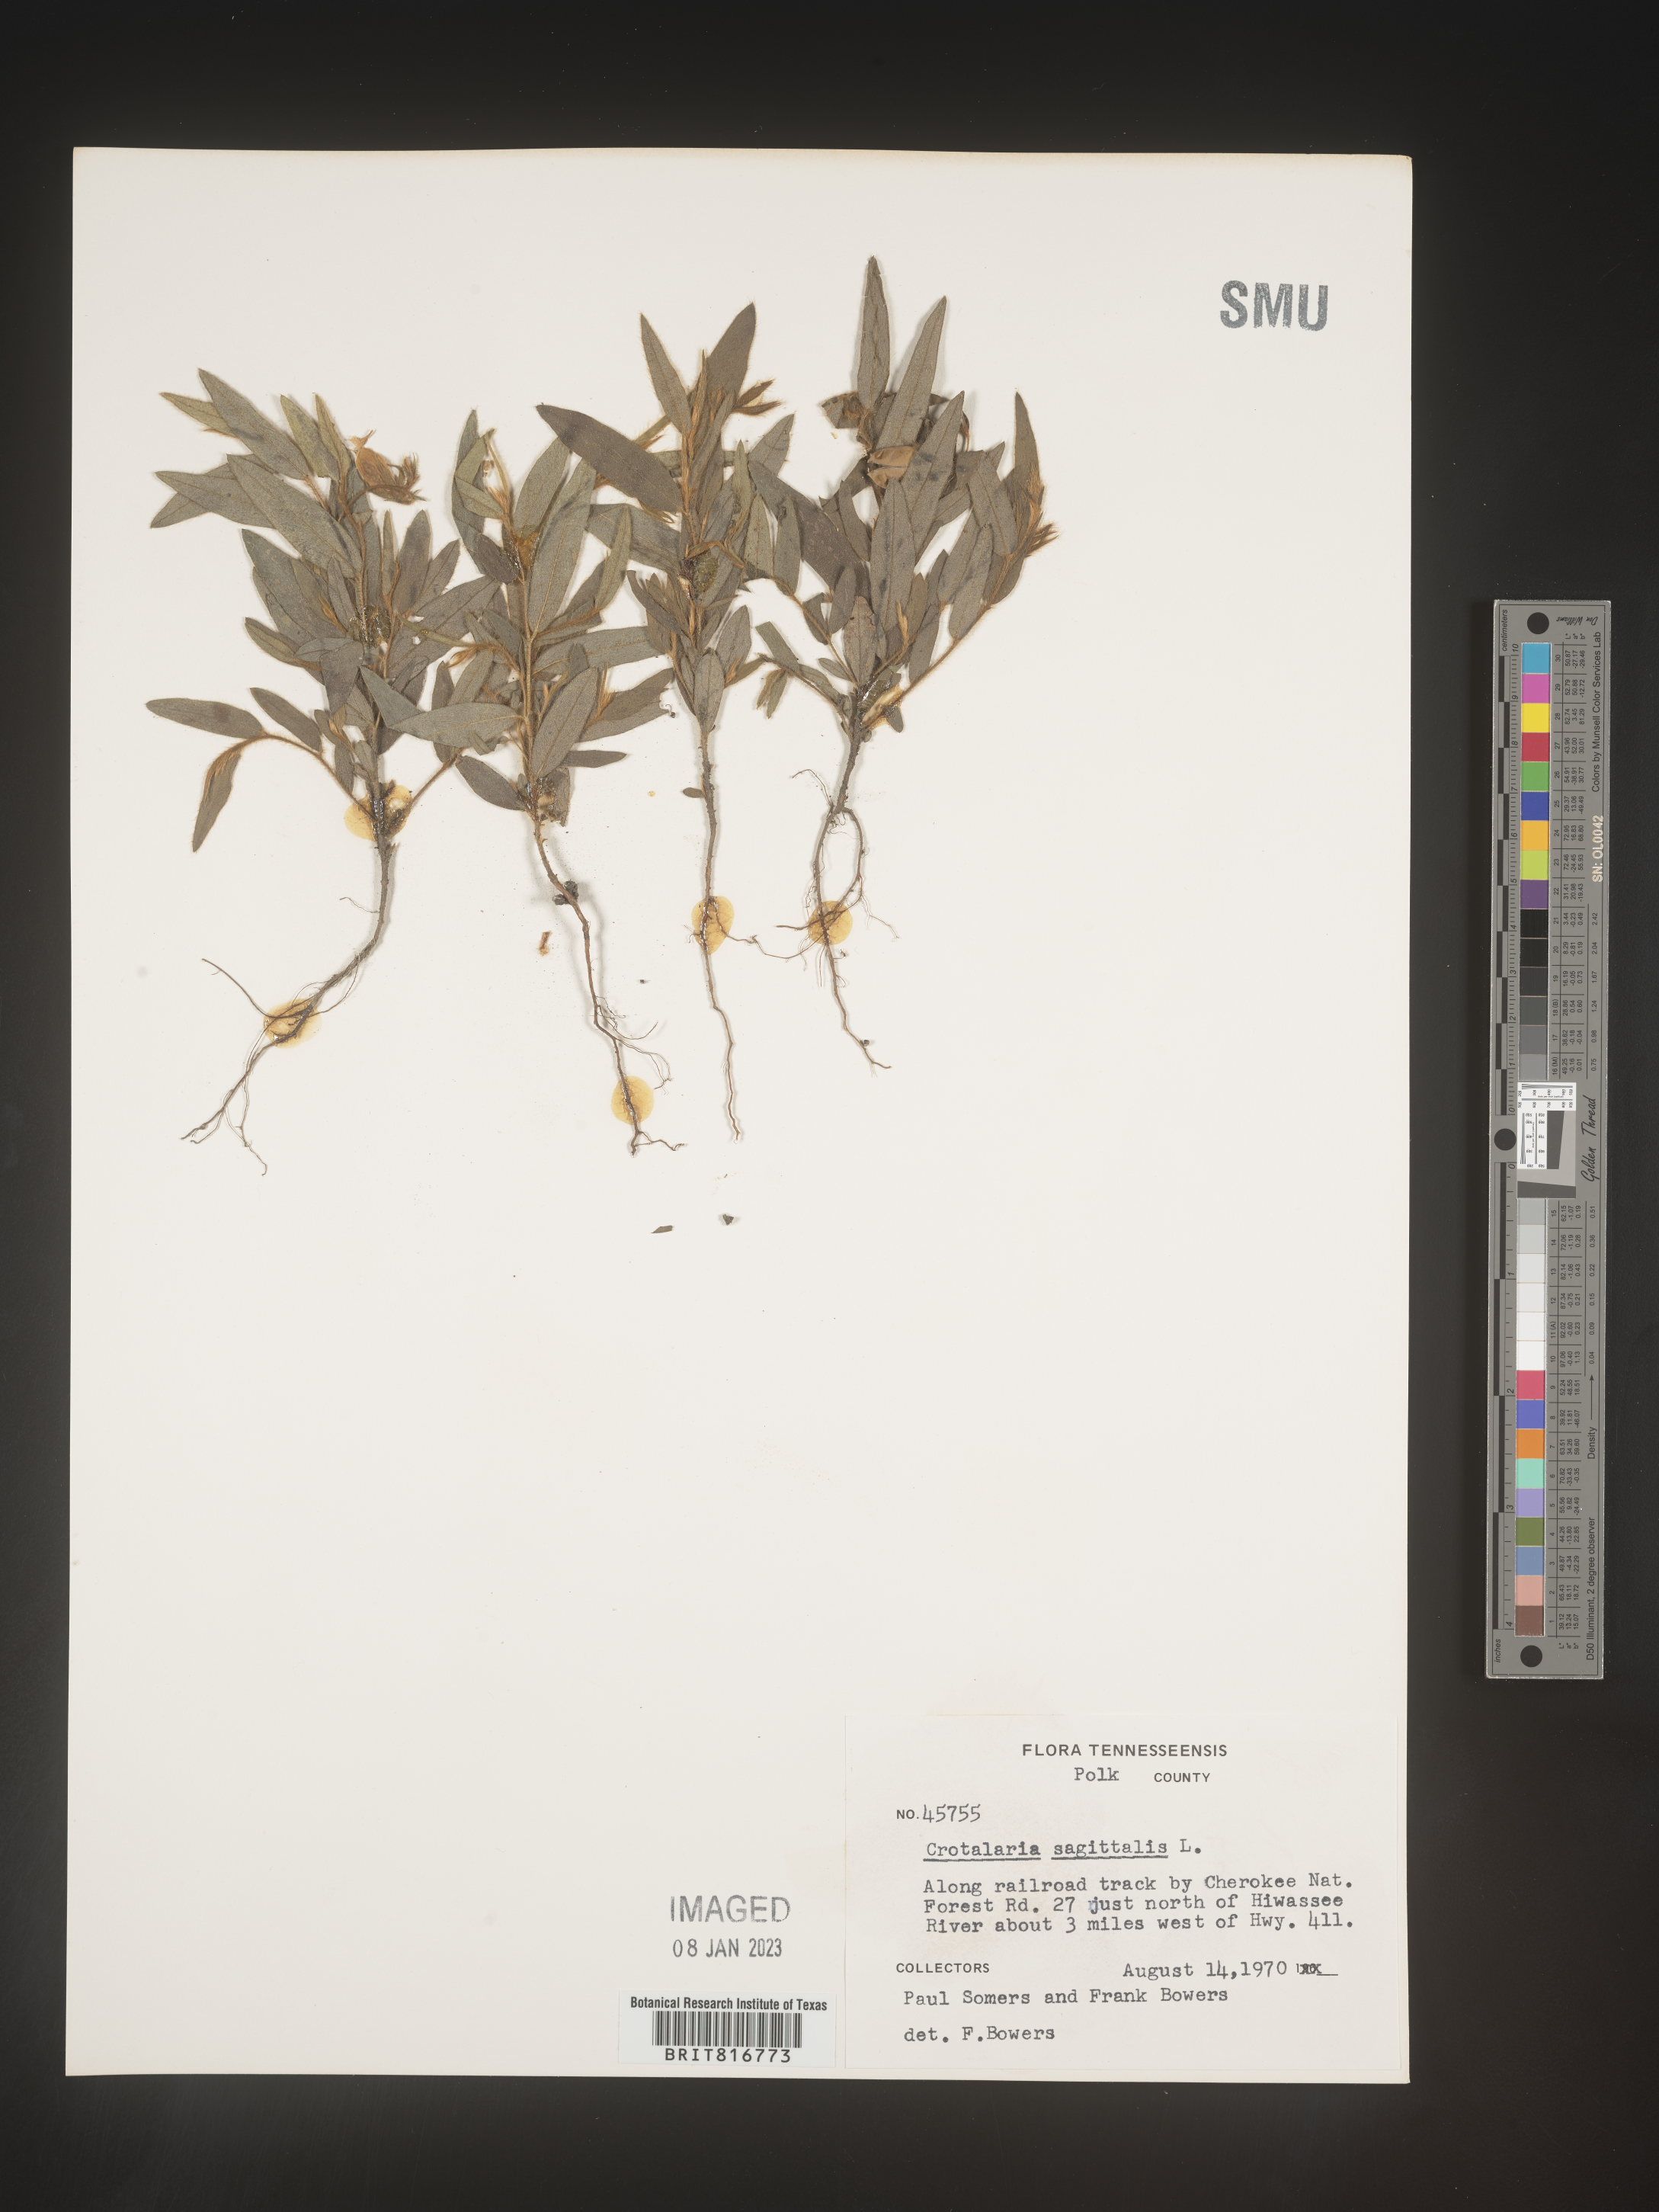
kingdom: Plantae
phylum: Tracheophyta
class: Magnoliopsida
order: Fabales
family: Fabaceae
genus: Crotalaria
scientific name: Crotalaria sagittalis
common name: Arrowhead rattlebox
